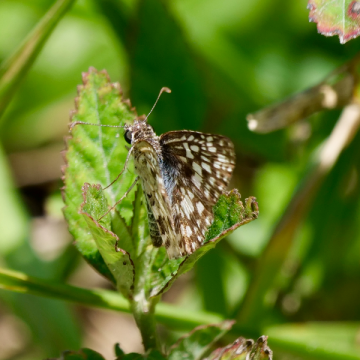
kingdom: Animalia
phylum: Arthropoda
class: Insecta
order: Lepidoptera
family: Hesperiidae
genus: Pyrgus
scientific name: Pyrgus oileus
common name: Tropical Checkered-Skipper
